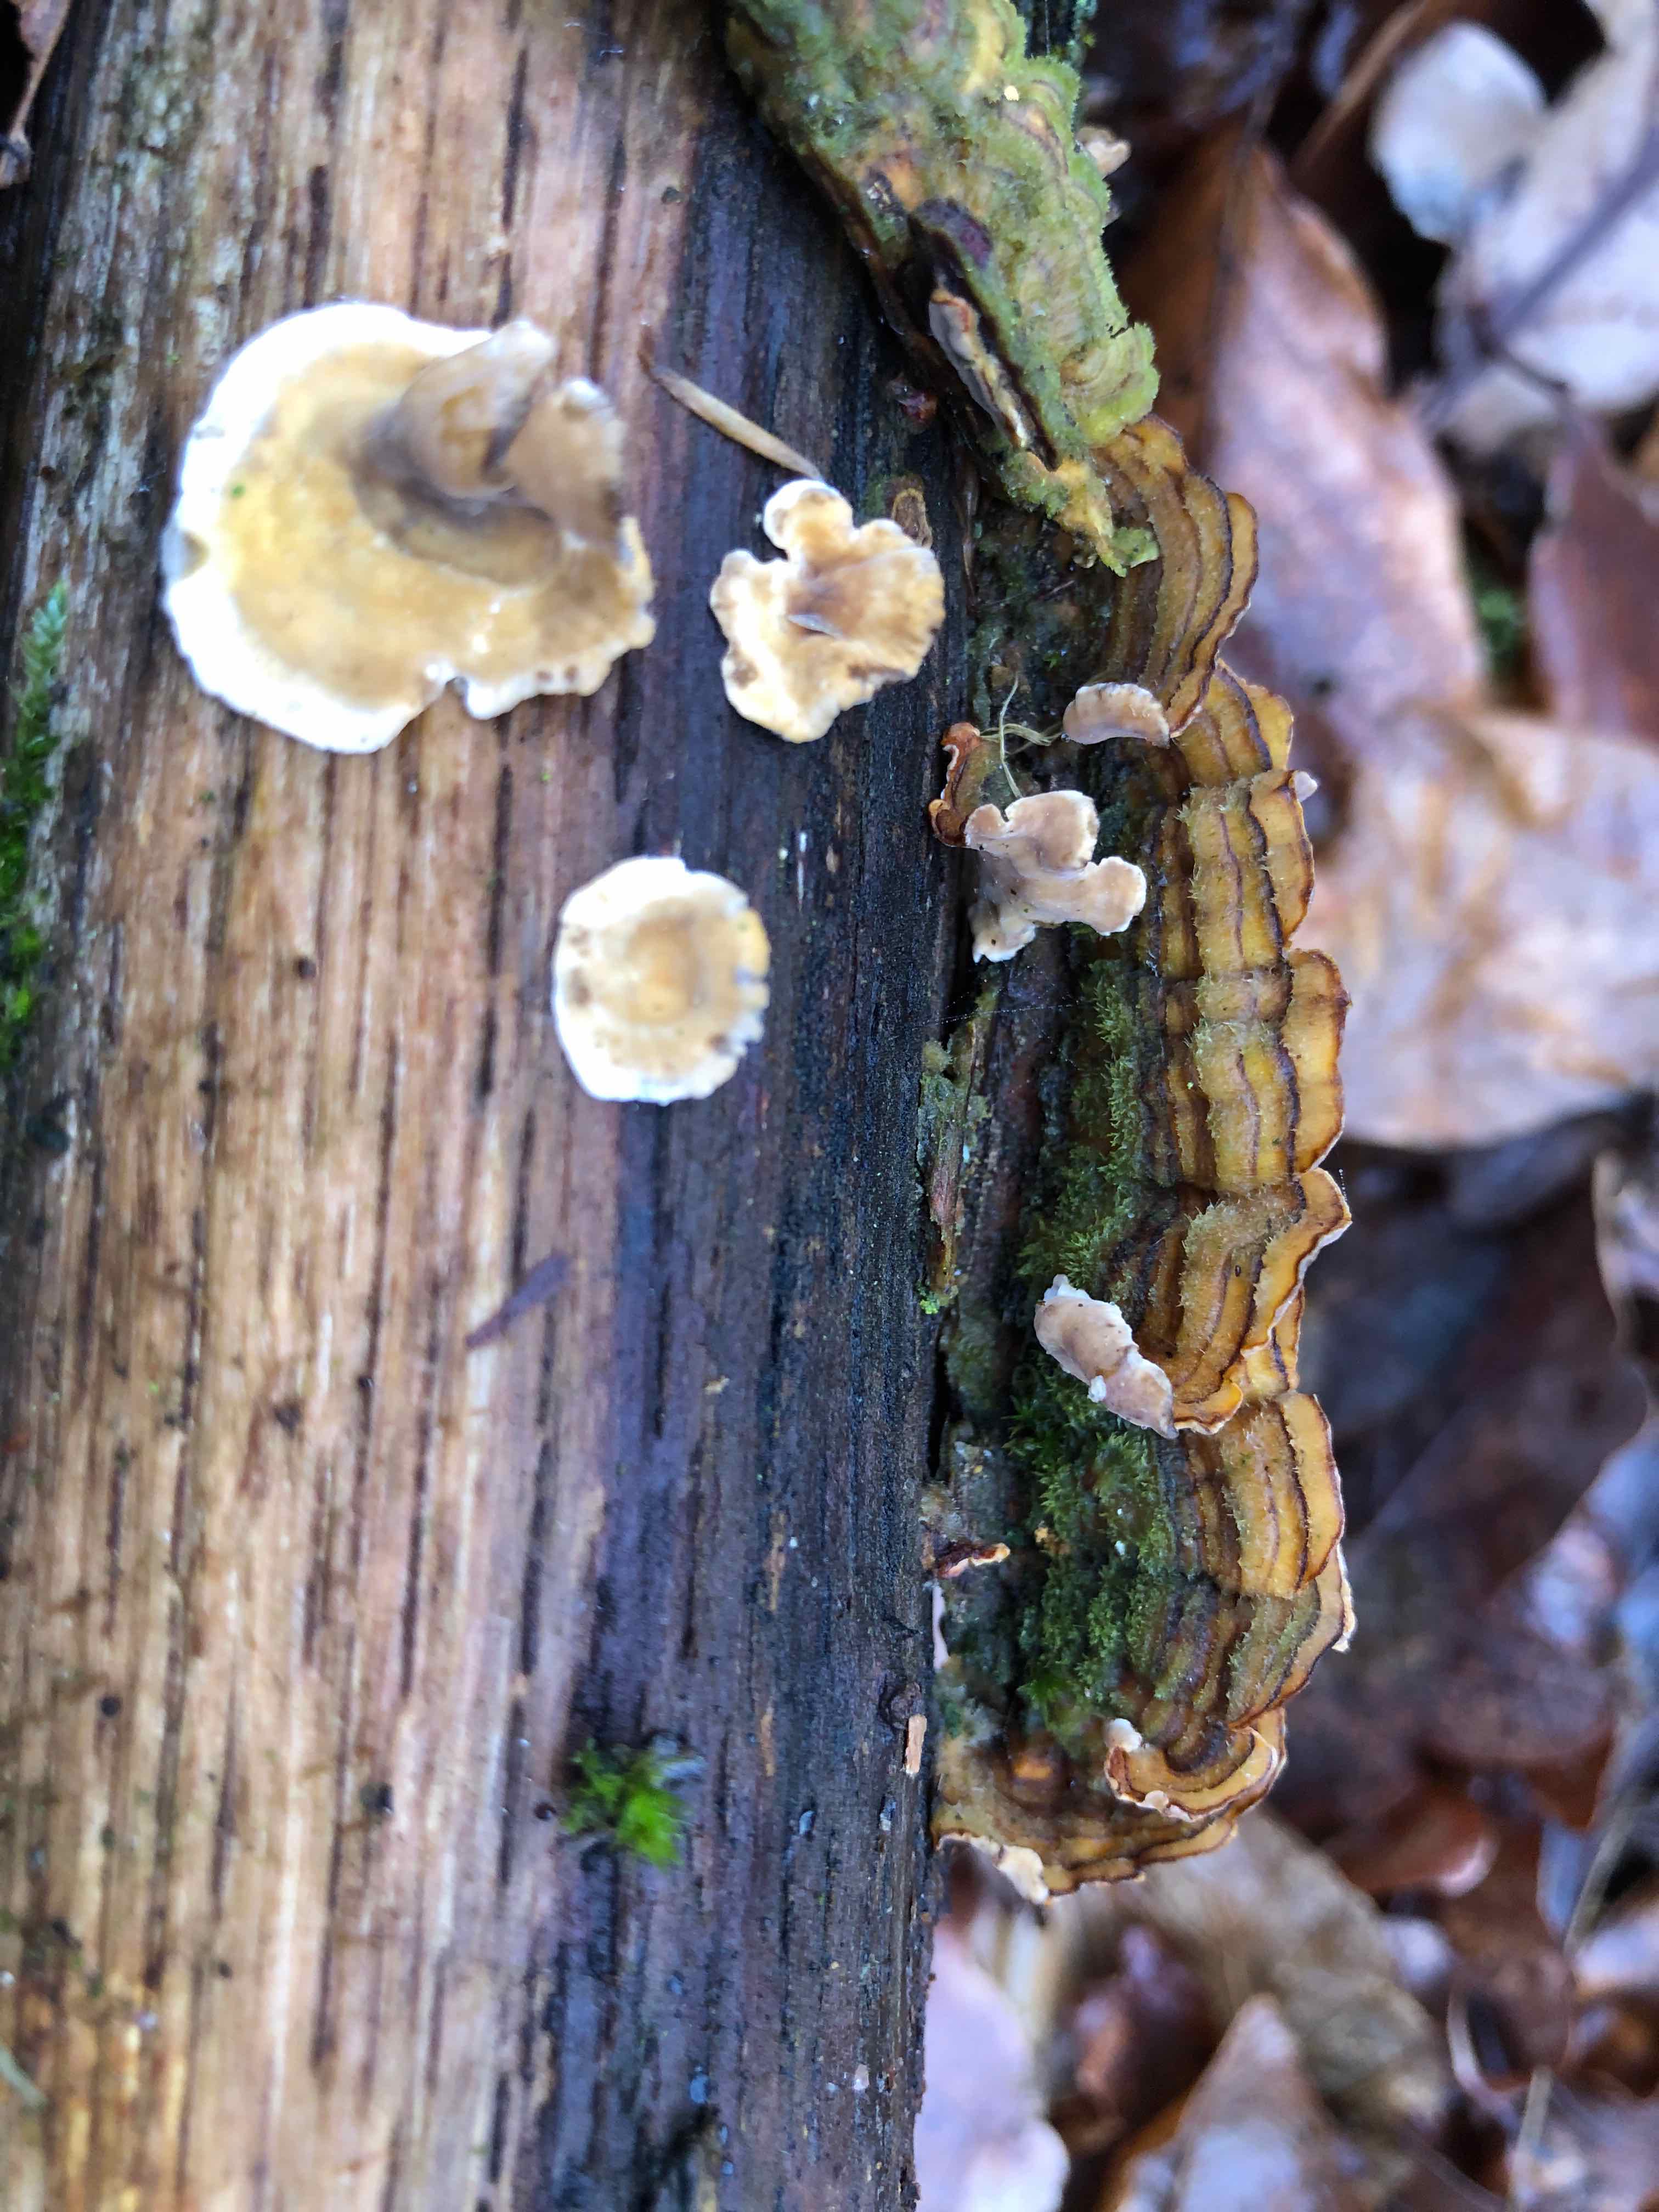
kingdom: Fungi
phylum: Basidiomycota
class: Agaricomycetes
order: Russulales
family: Stereaceae
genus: Stereum
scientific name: Stereum hirsutum
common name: håret lædersvamp
